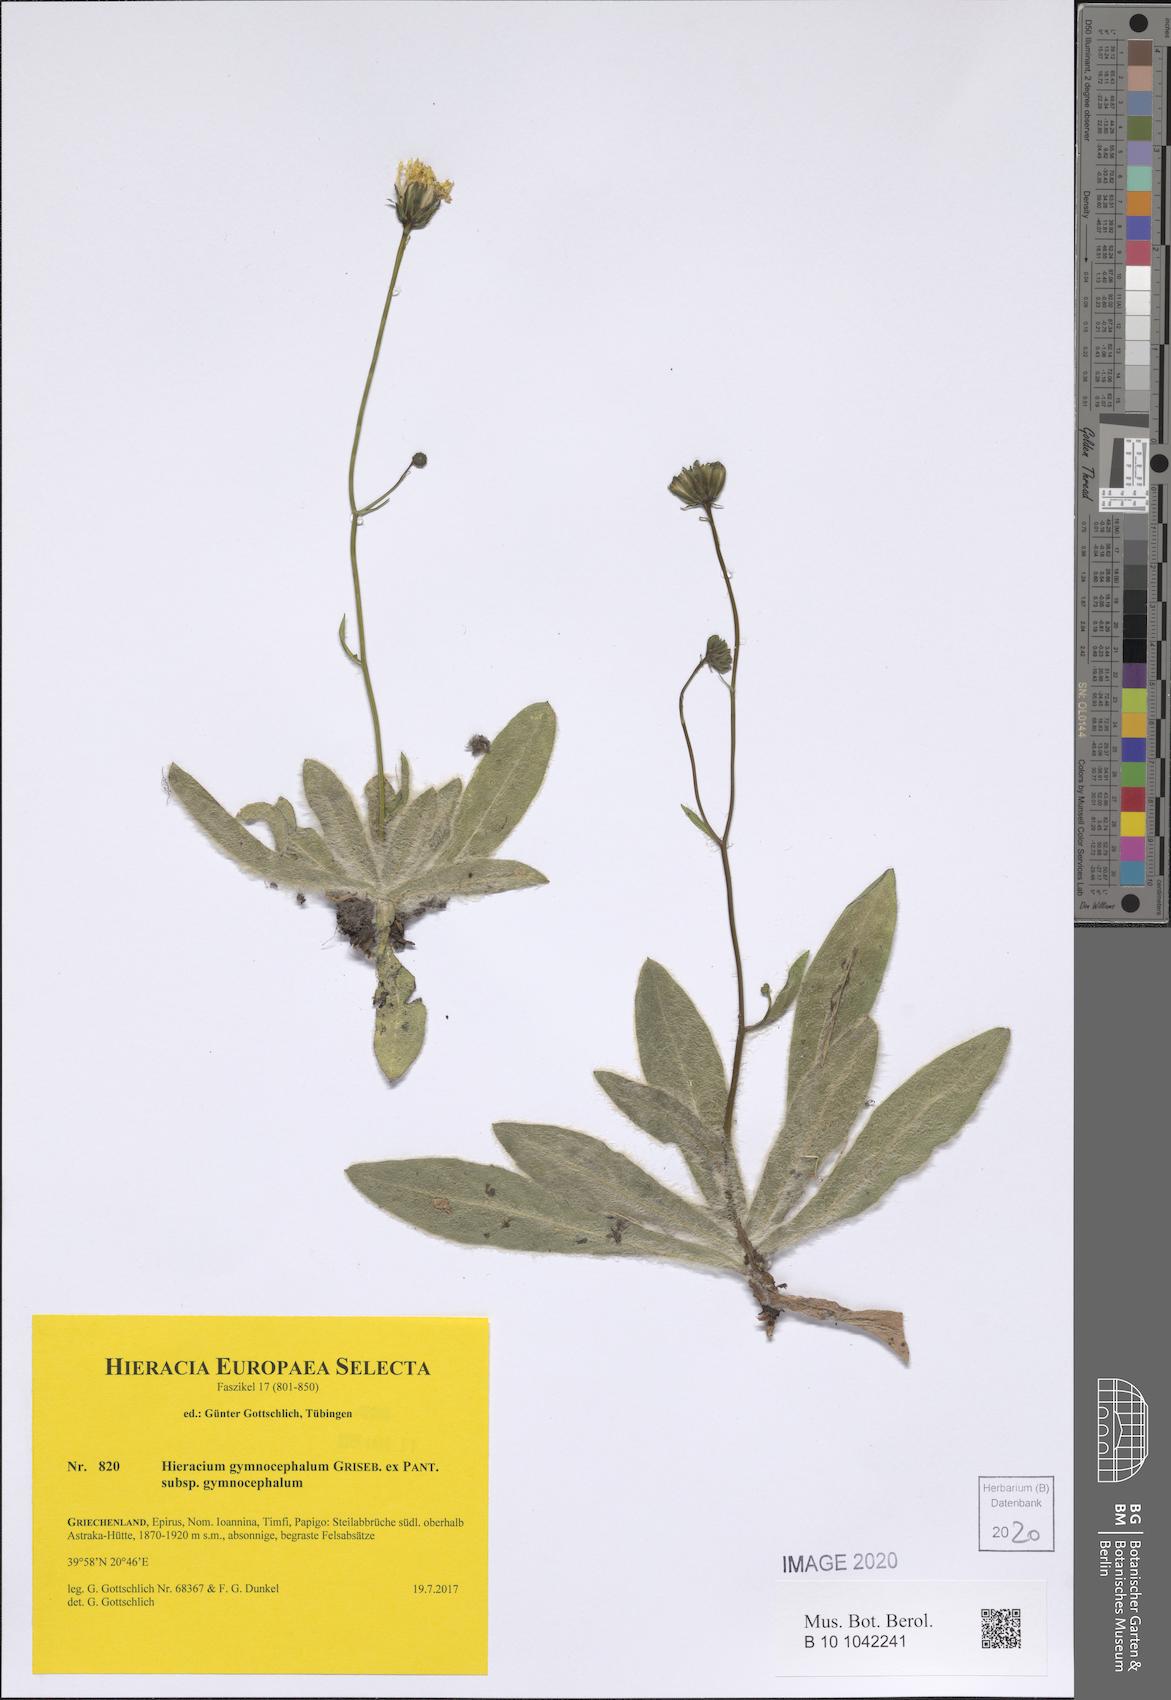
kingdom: Plantae
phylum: Tracheophyta
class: Magnoliopsida
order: Asterales
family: Asteraceae
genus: Hieracium
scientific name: Hieracium gymnocephalum
